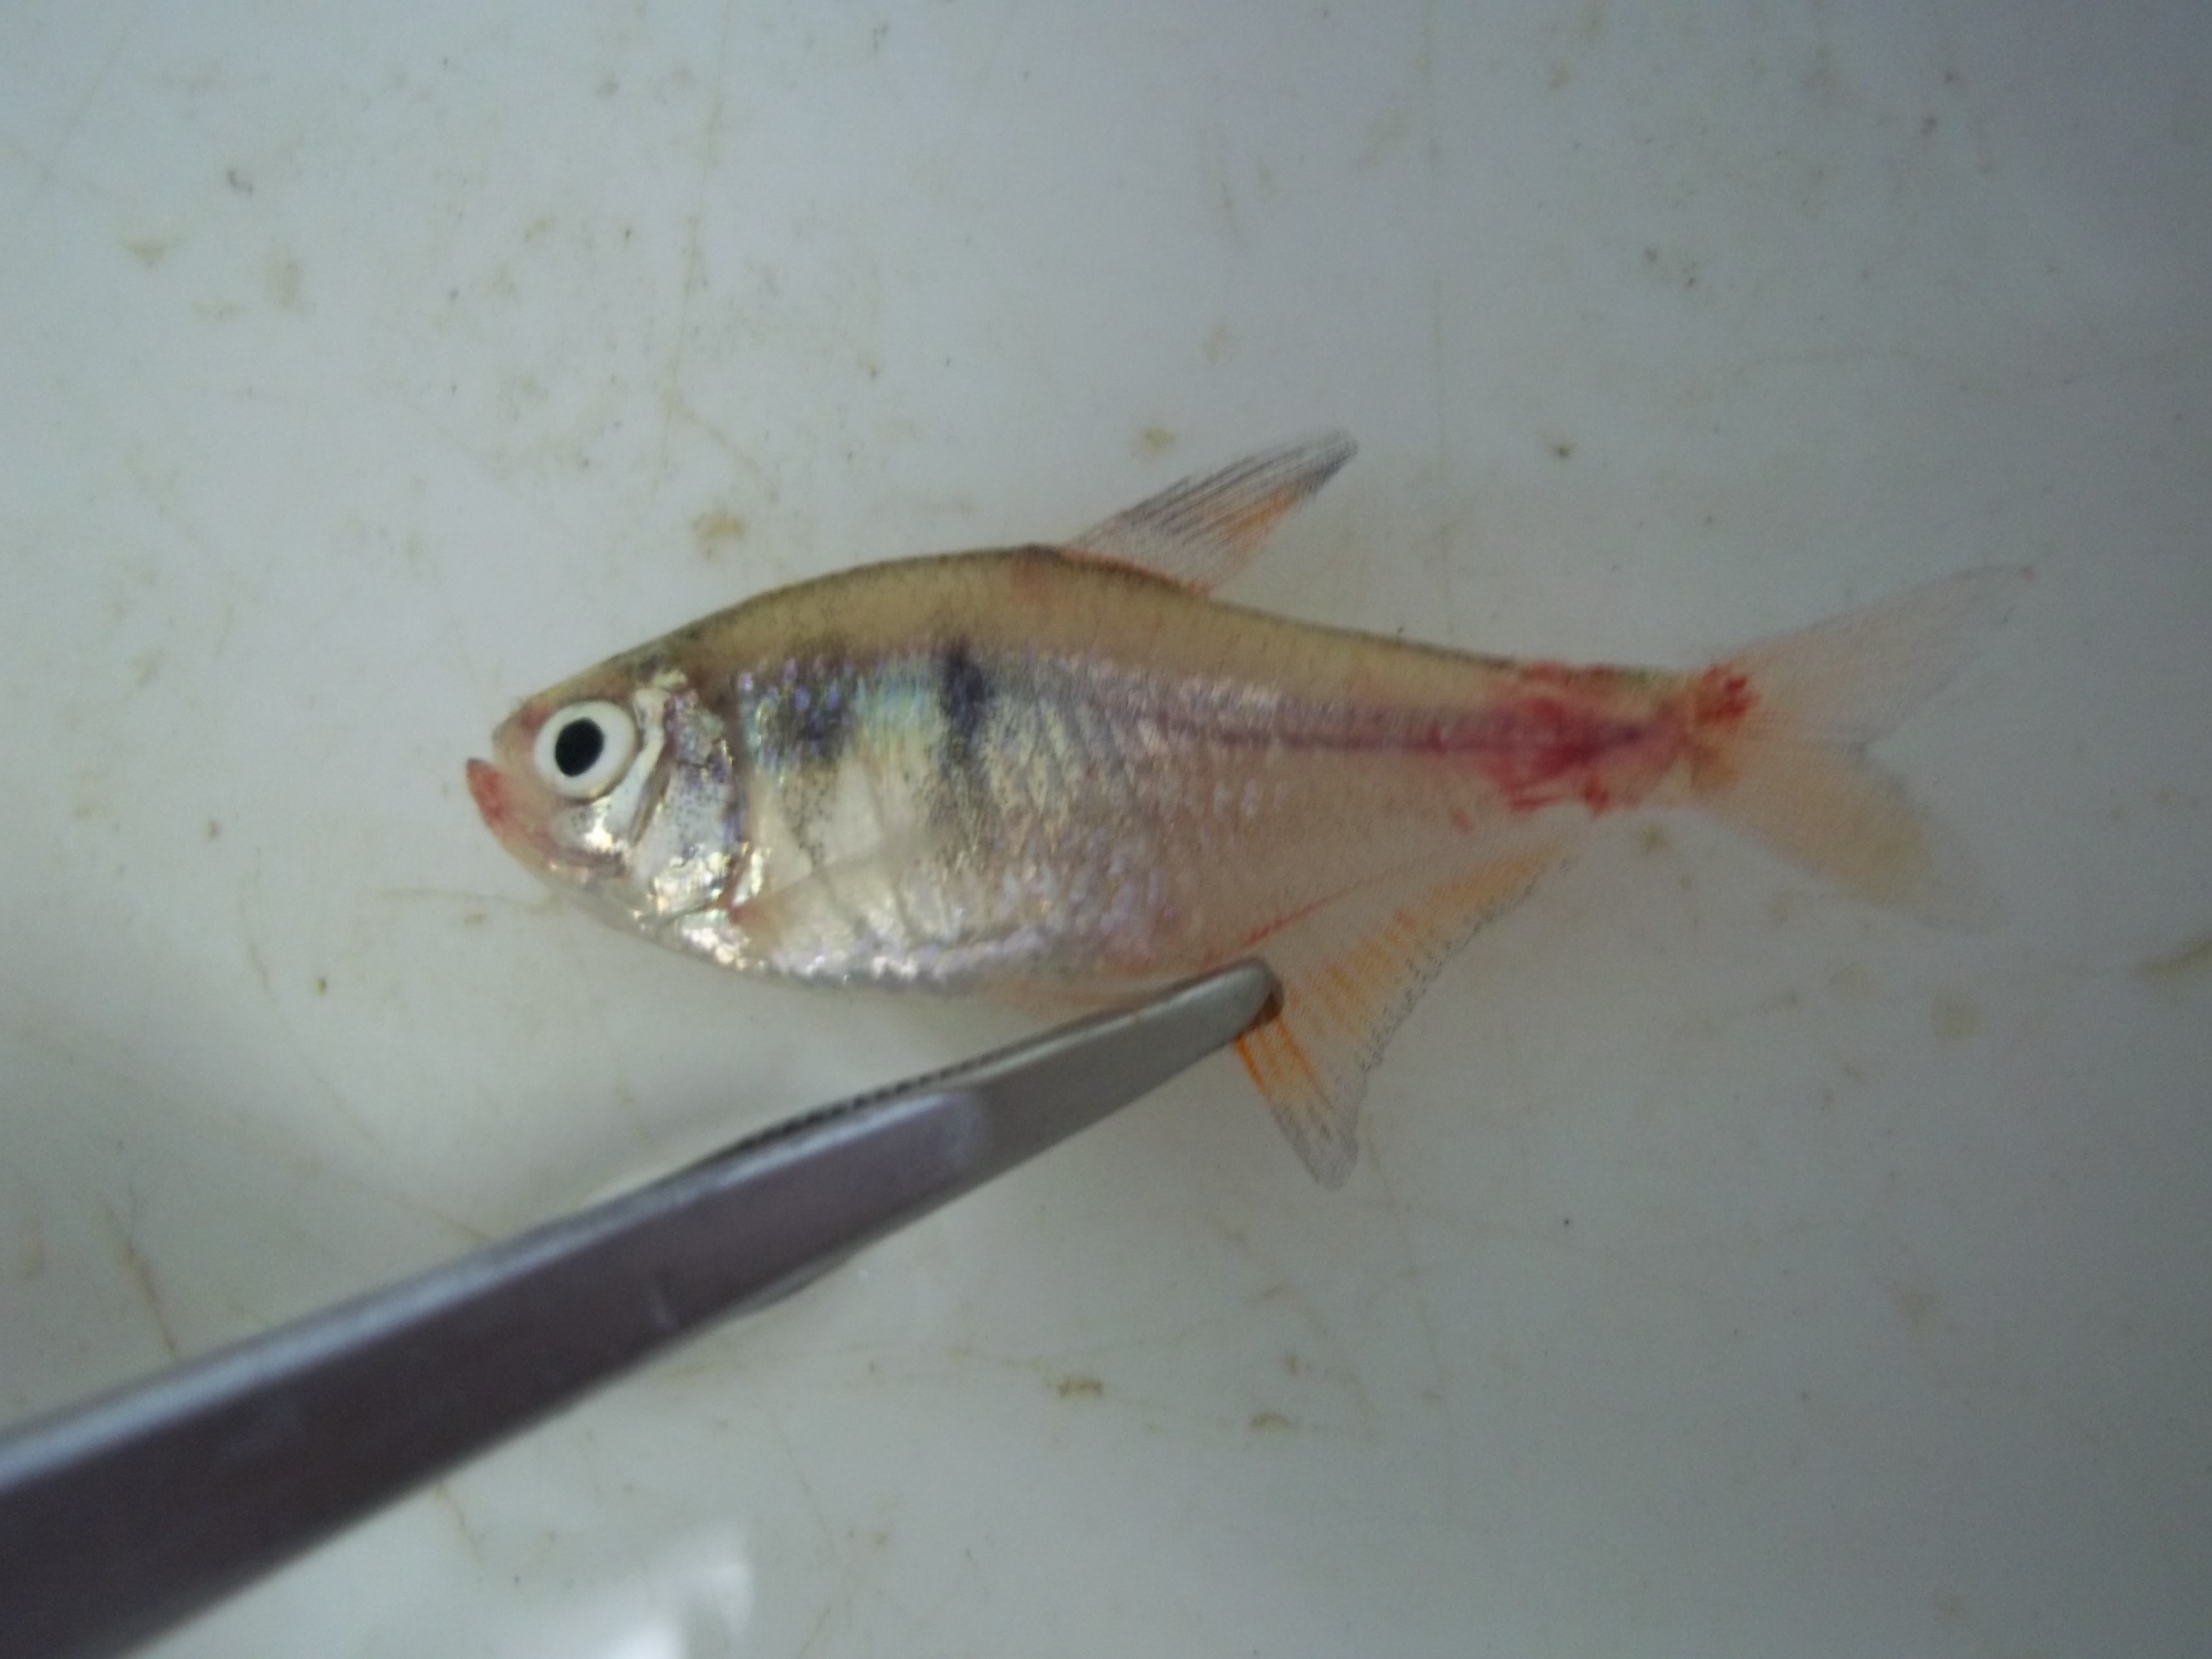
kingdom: Animalia
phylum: Chordata
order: Characiformes
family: Characidae
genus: Hyphessobrycon
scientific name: Hyphessobrycon flammeus
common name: Flame tetra
